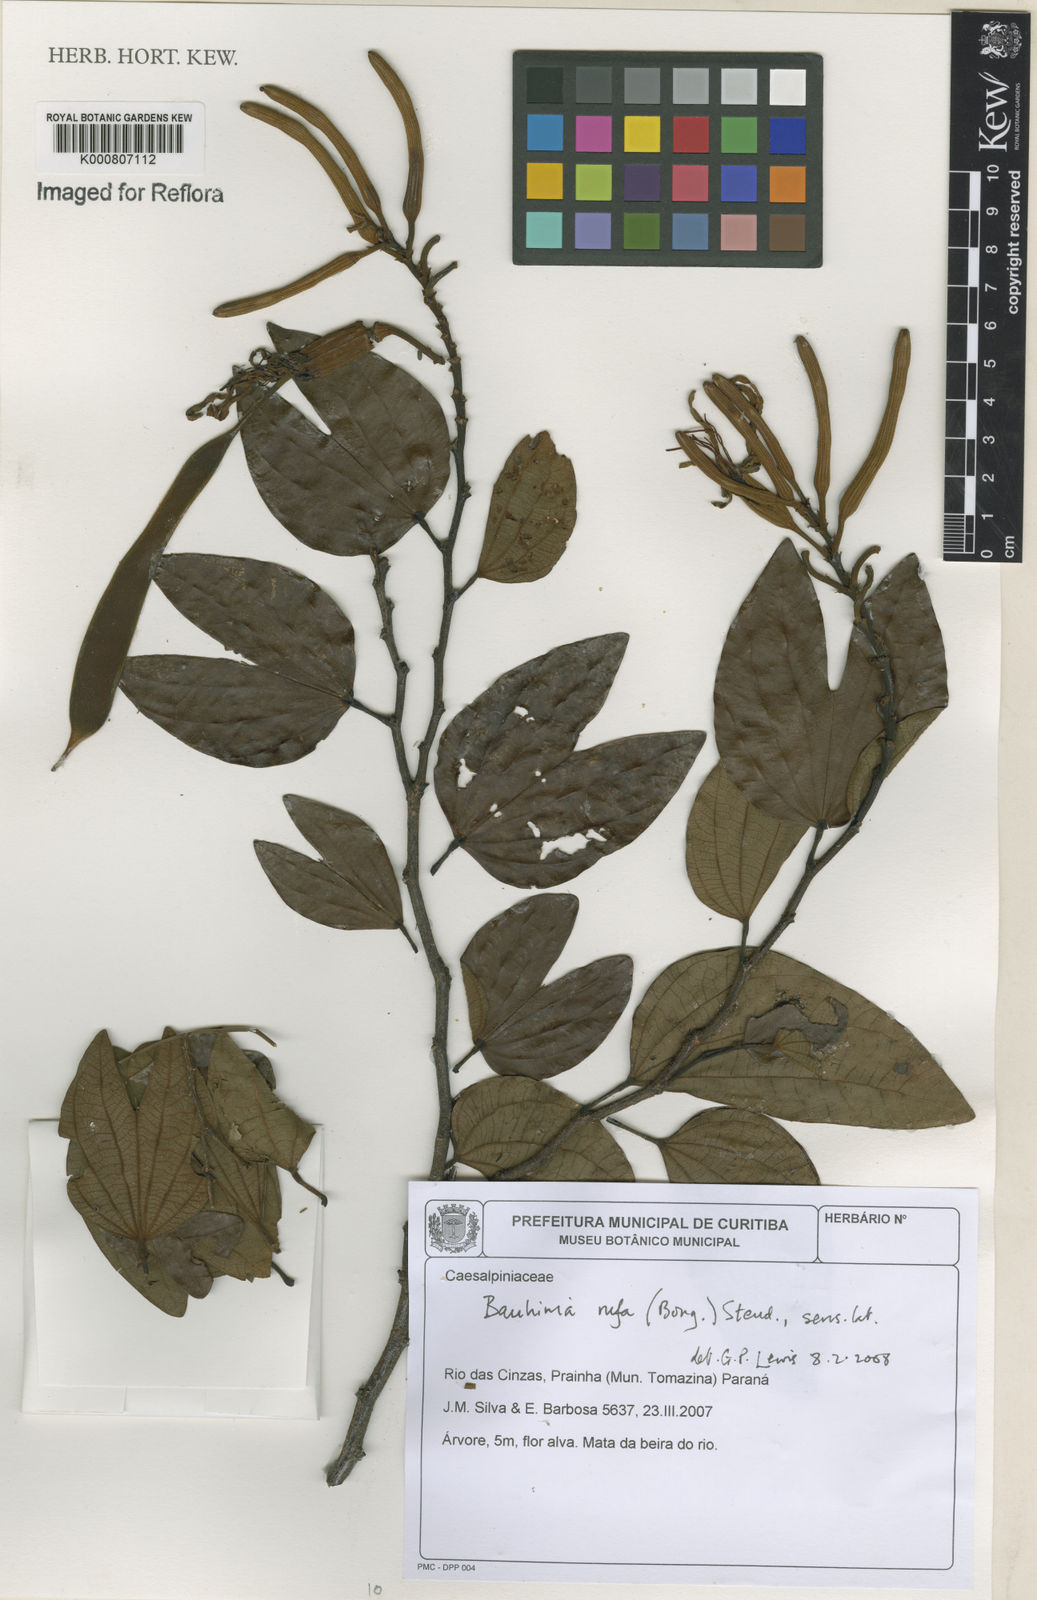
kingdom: Plantae
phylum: Tracheophyta
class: Magnoliopsida
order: Fabales
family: Fabaceae
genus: Bauhinia
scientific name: Bauhinia rufa
